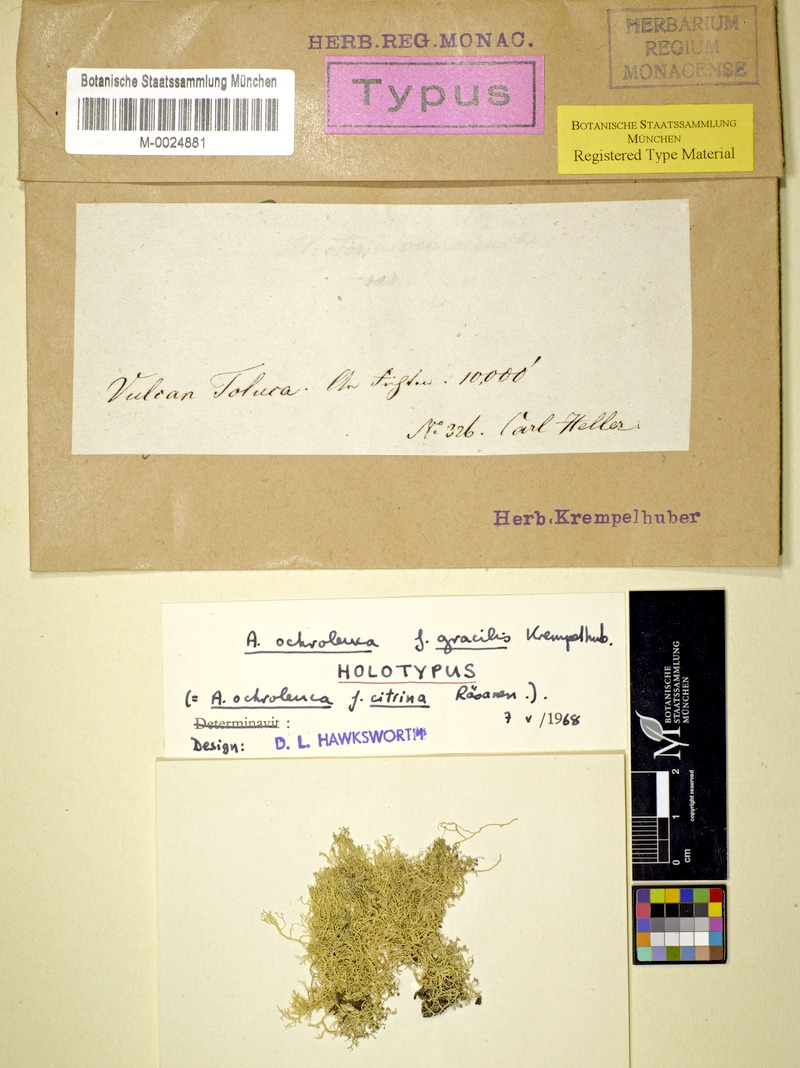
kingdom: Fungi
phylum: Ascomycota
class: Lecanoromycetes
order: Lecanorales
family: Parmeliaceae
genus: Alectoria
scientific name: Alectoria ochroleuca
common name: Alpine sulphur-tresses
